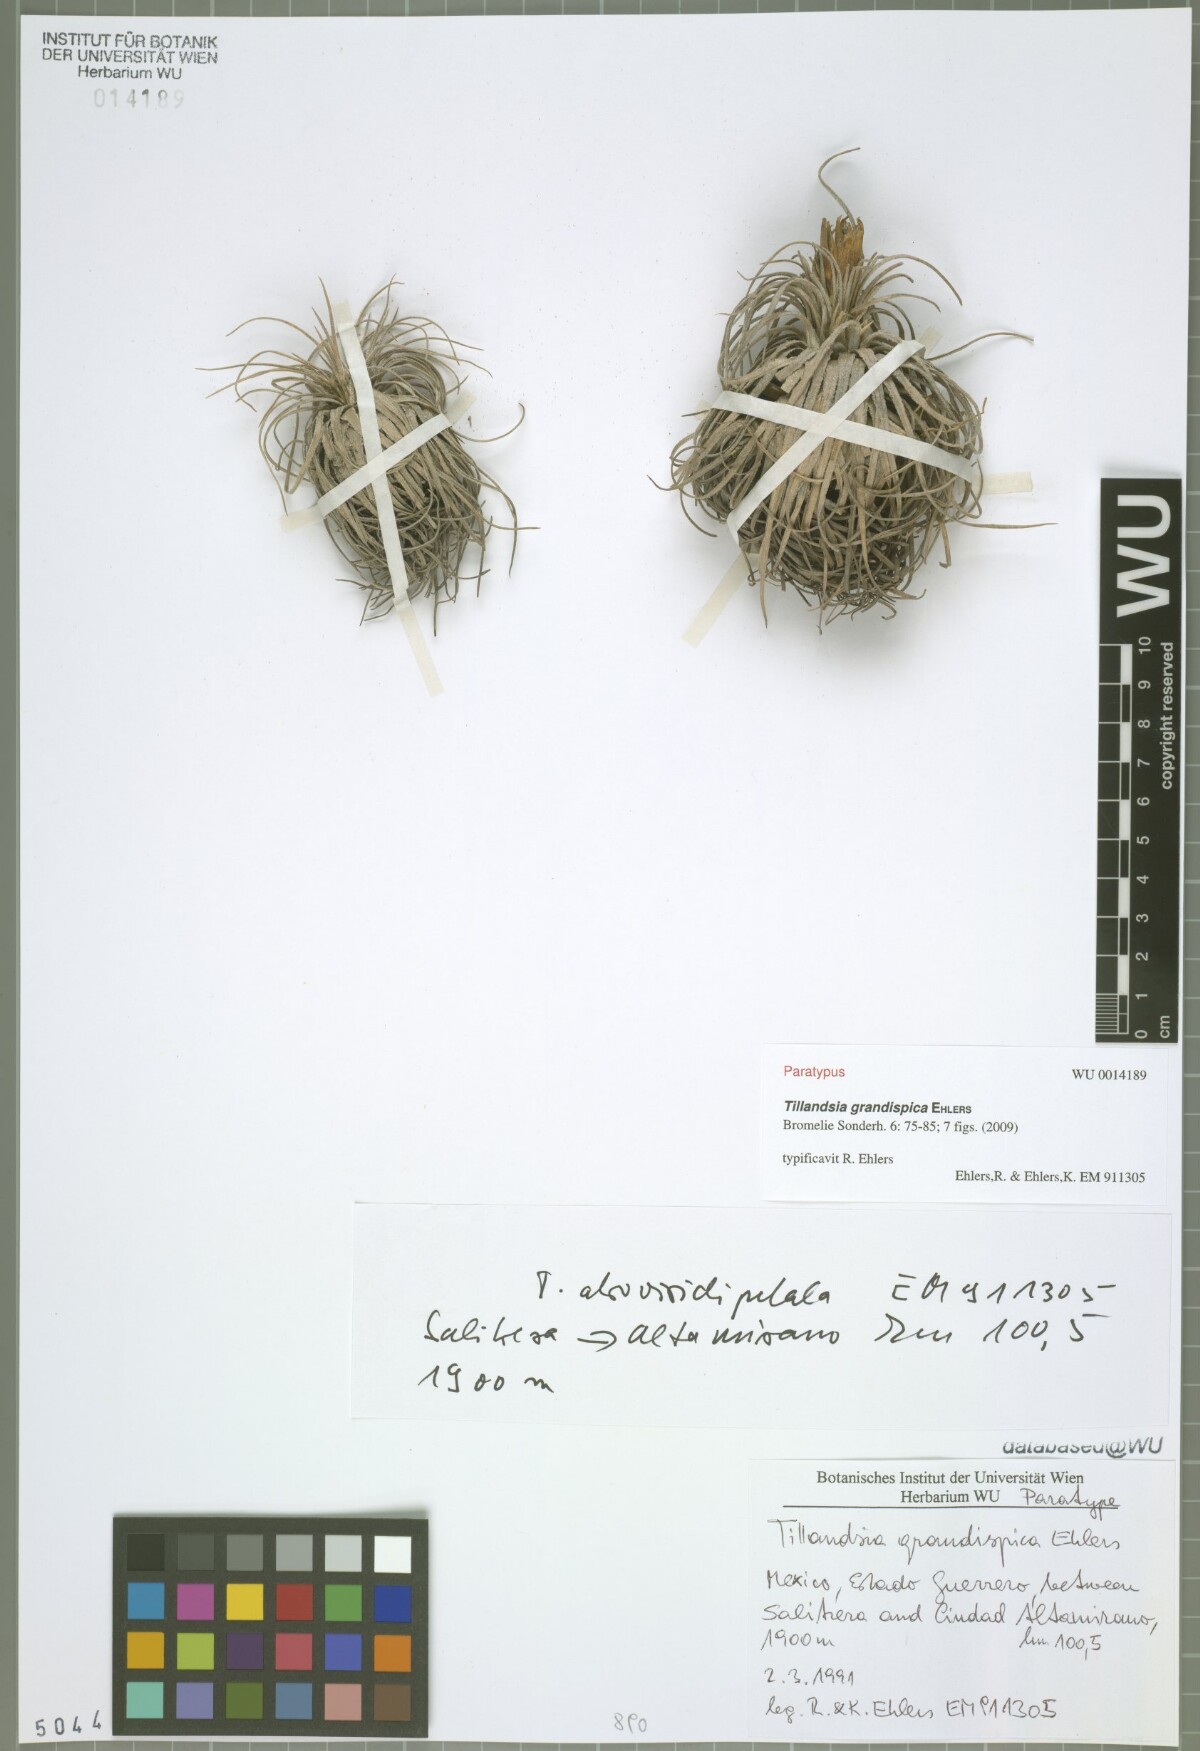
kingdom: Plantae
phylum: Tracheophyta
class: Liliopsida
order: Poales
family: Bromeliaceae
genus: Tillandsia
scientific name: Tillandsia grandispica
